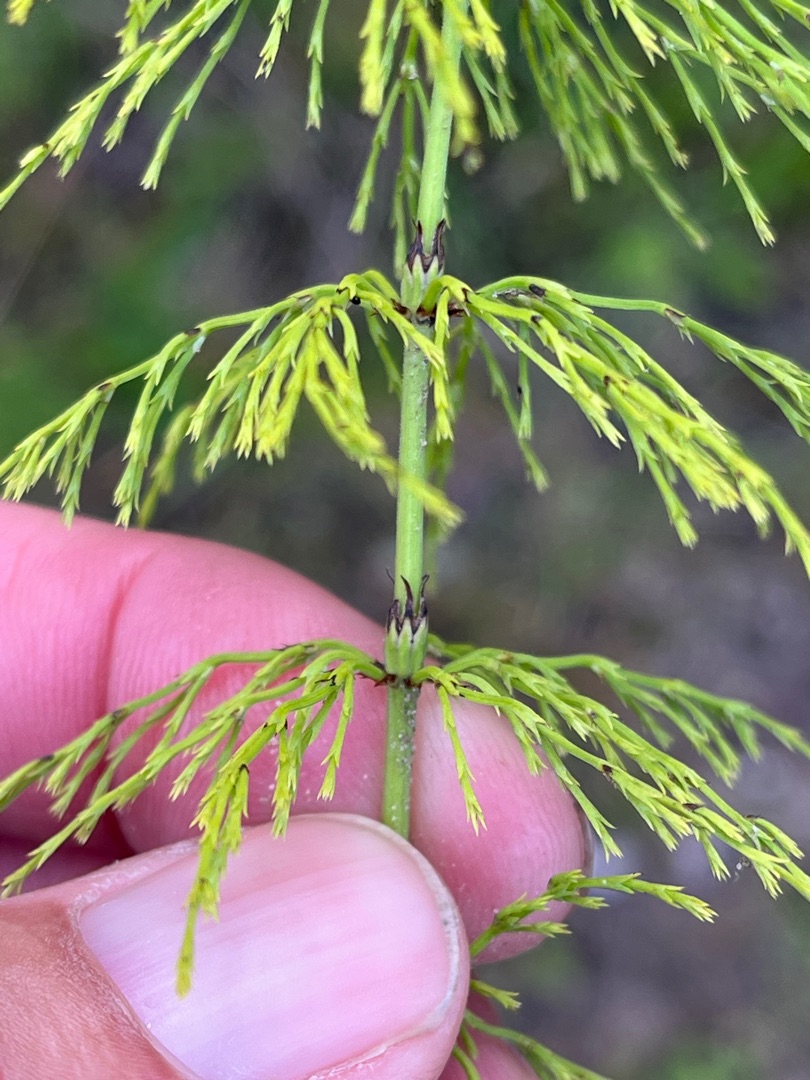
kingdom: Plantae
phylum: Tracheophyta
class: Polypodiopsida
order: Equisetales
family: Equisetaceae
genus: Equisetum
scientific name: Equisetum sylvaticum
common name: Skov-padderok
